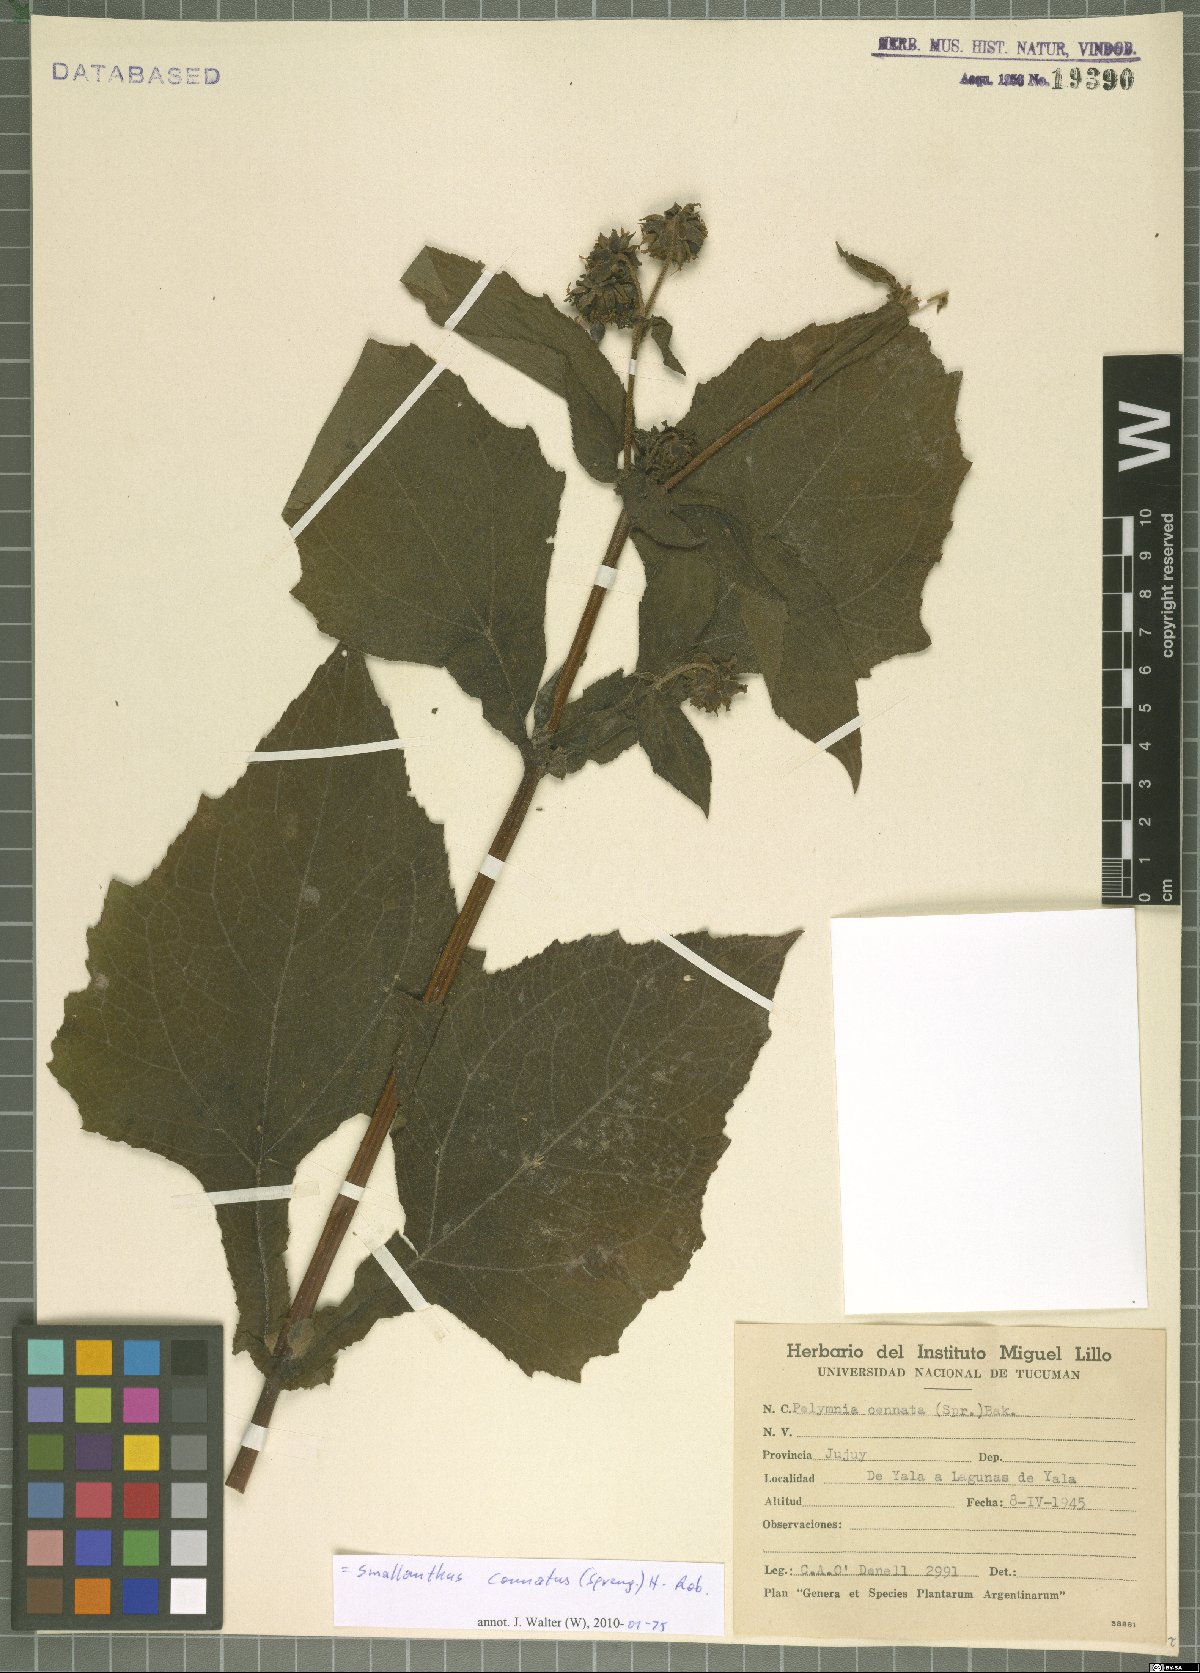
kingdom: Plantae
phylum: Tracheophyta
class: Magnoliopsida
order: Asterales
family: Asteraceae
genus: Smallanthus
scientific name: Smallanthus connatus
